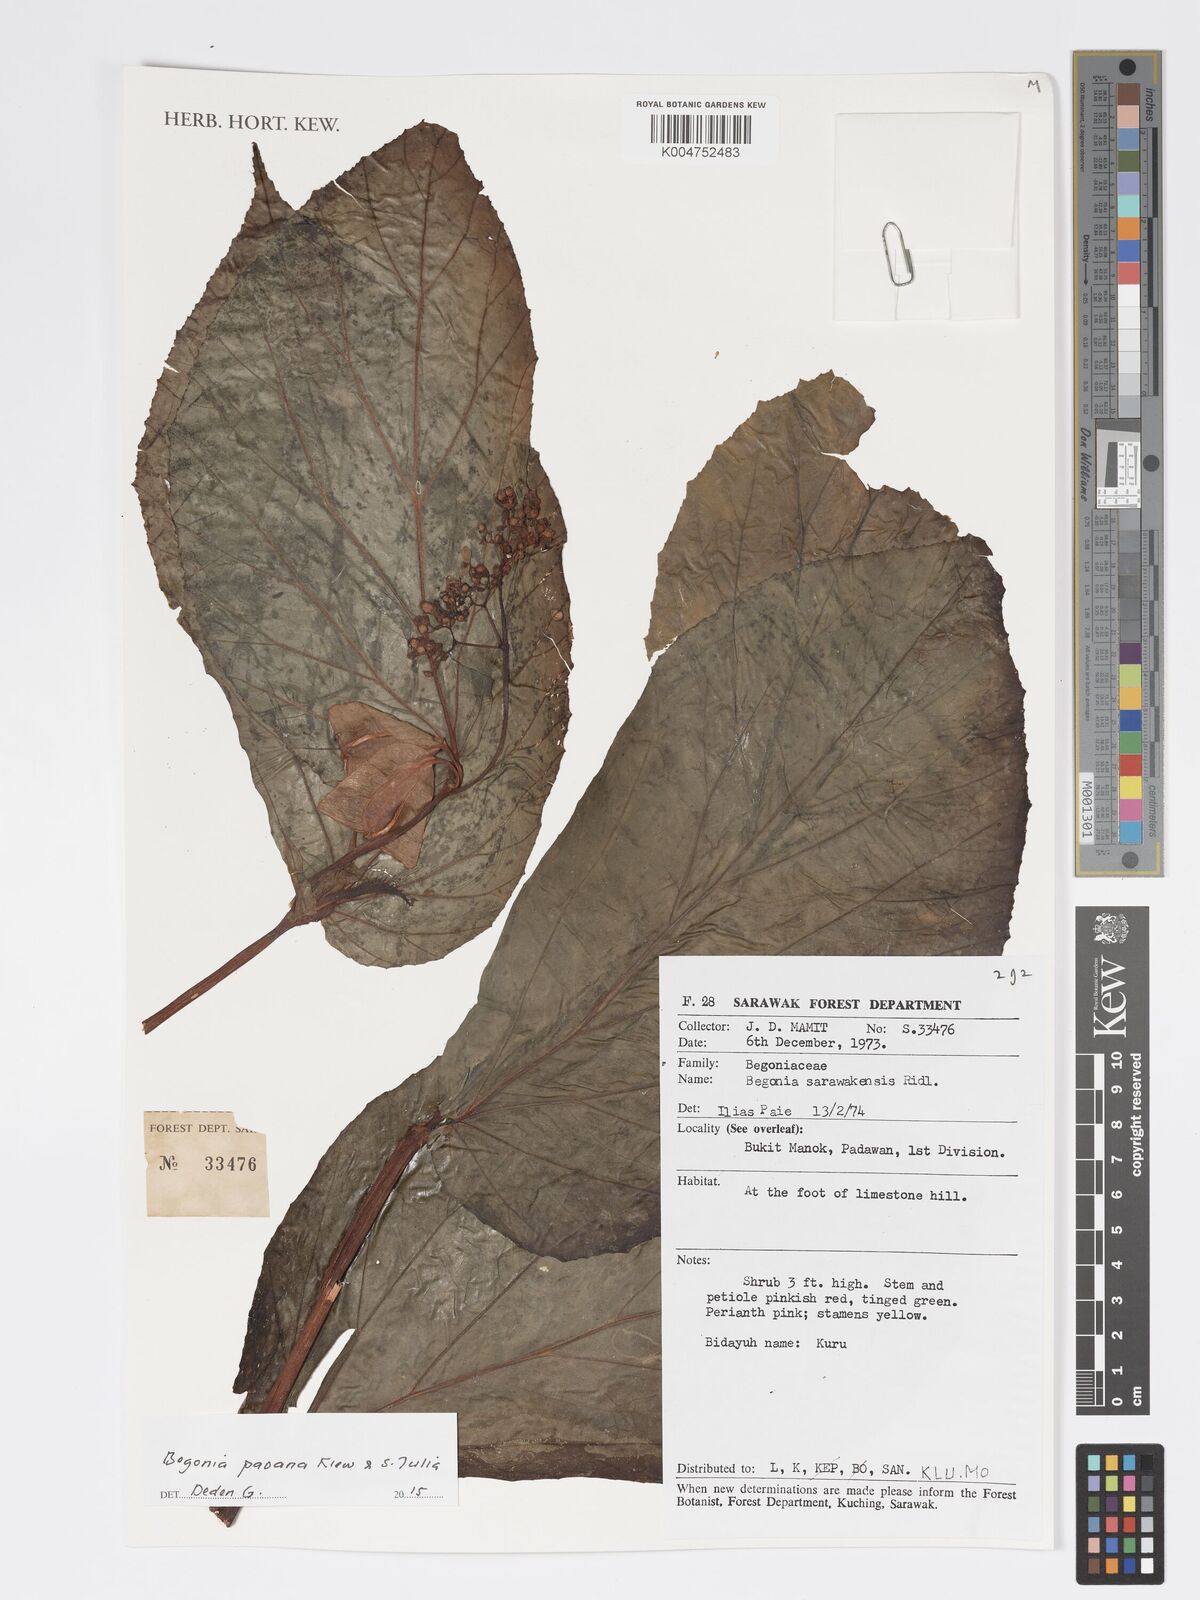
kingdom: Plantae
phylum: Tracheophyta
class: Magnoliopsida
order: Cucurbitales
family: Begoniaceae
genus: Begonia
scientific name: Begonia paoana
